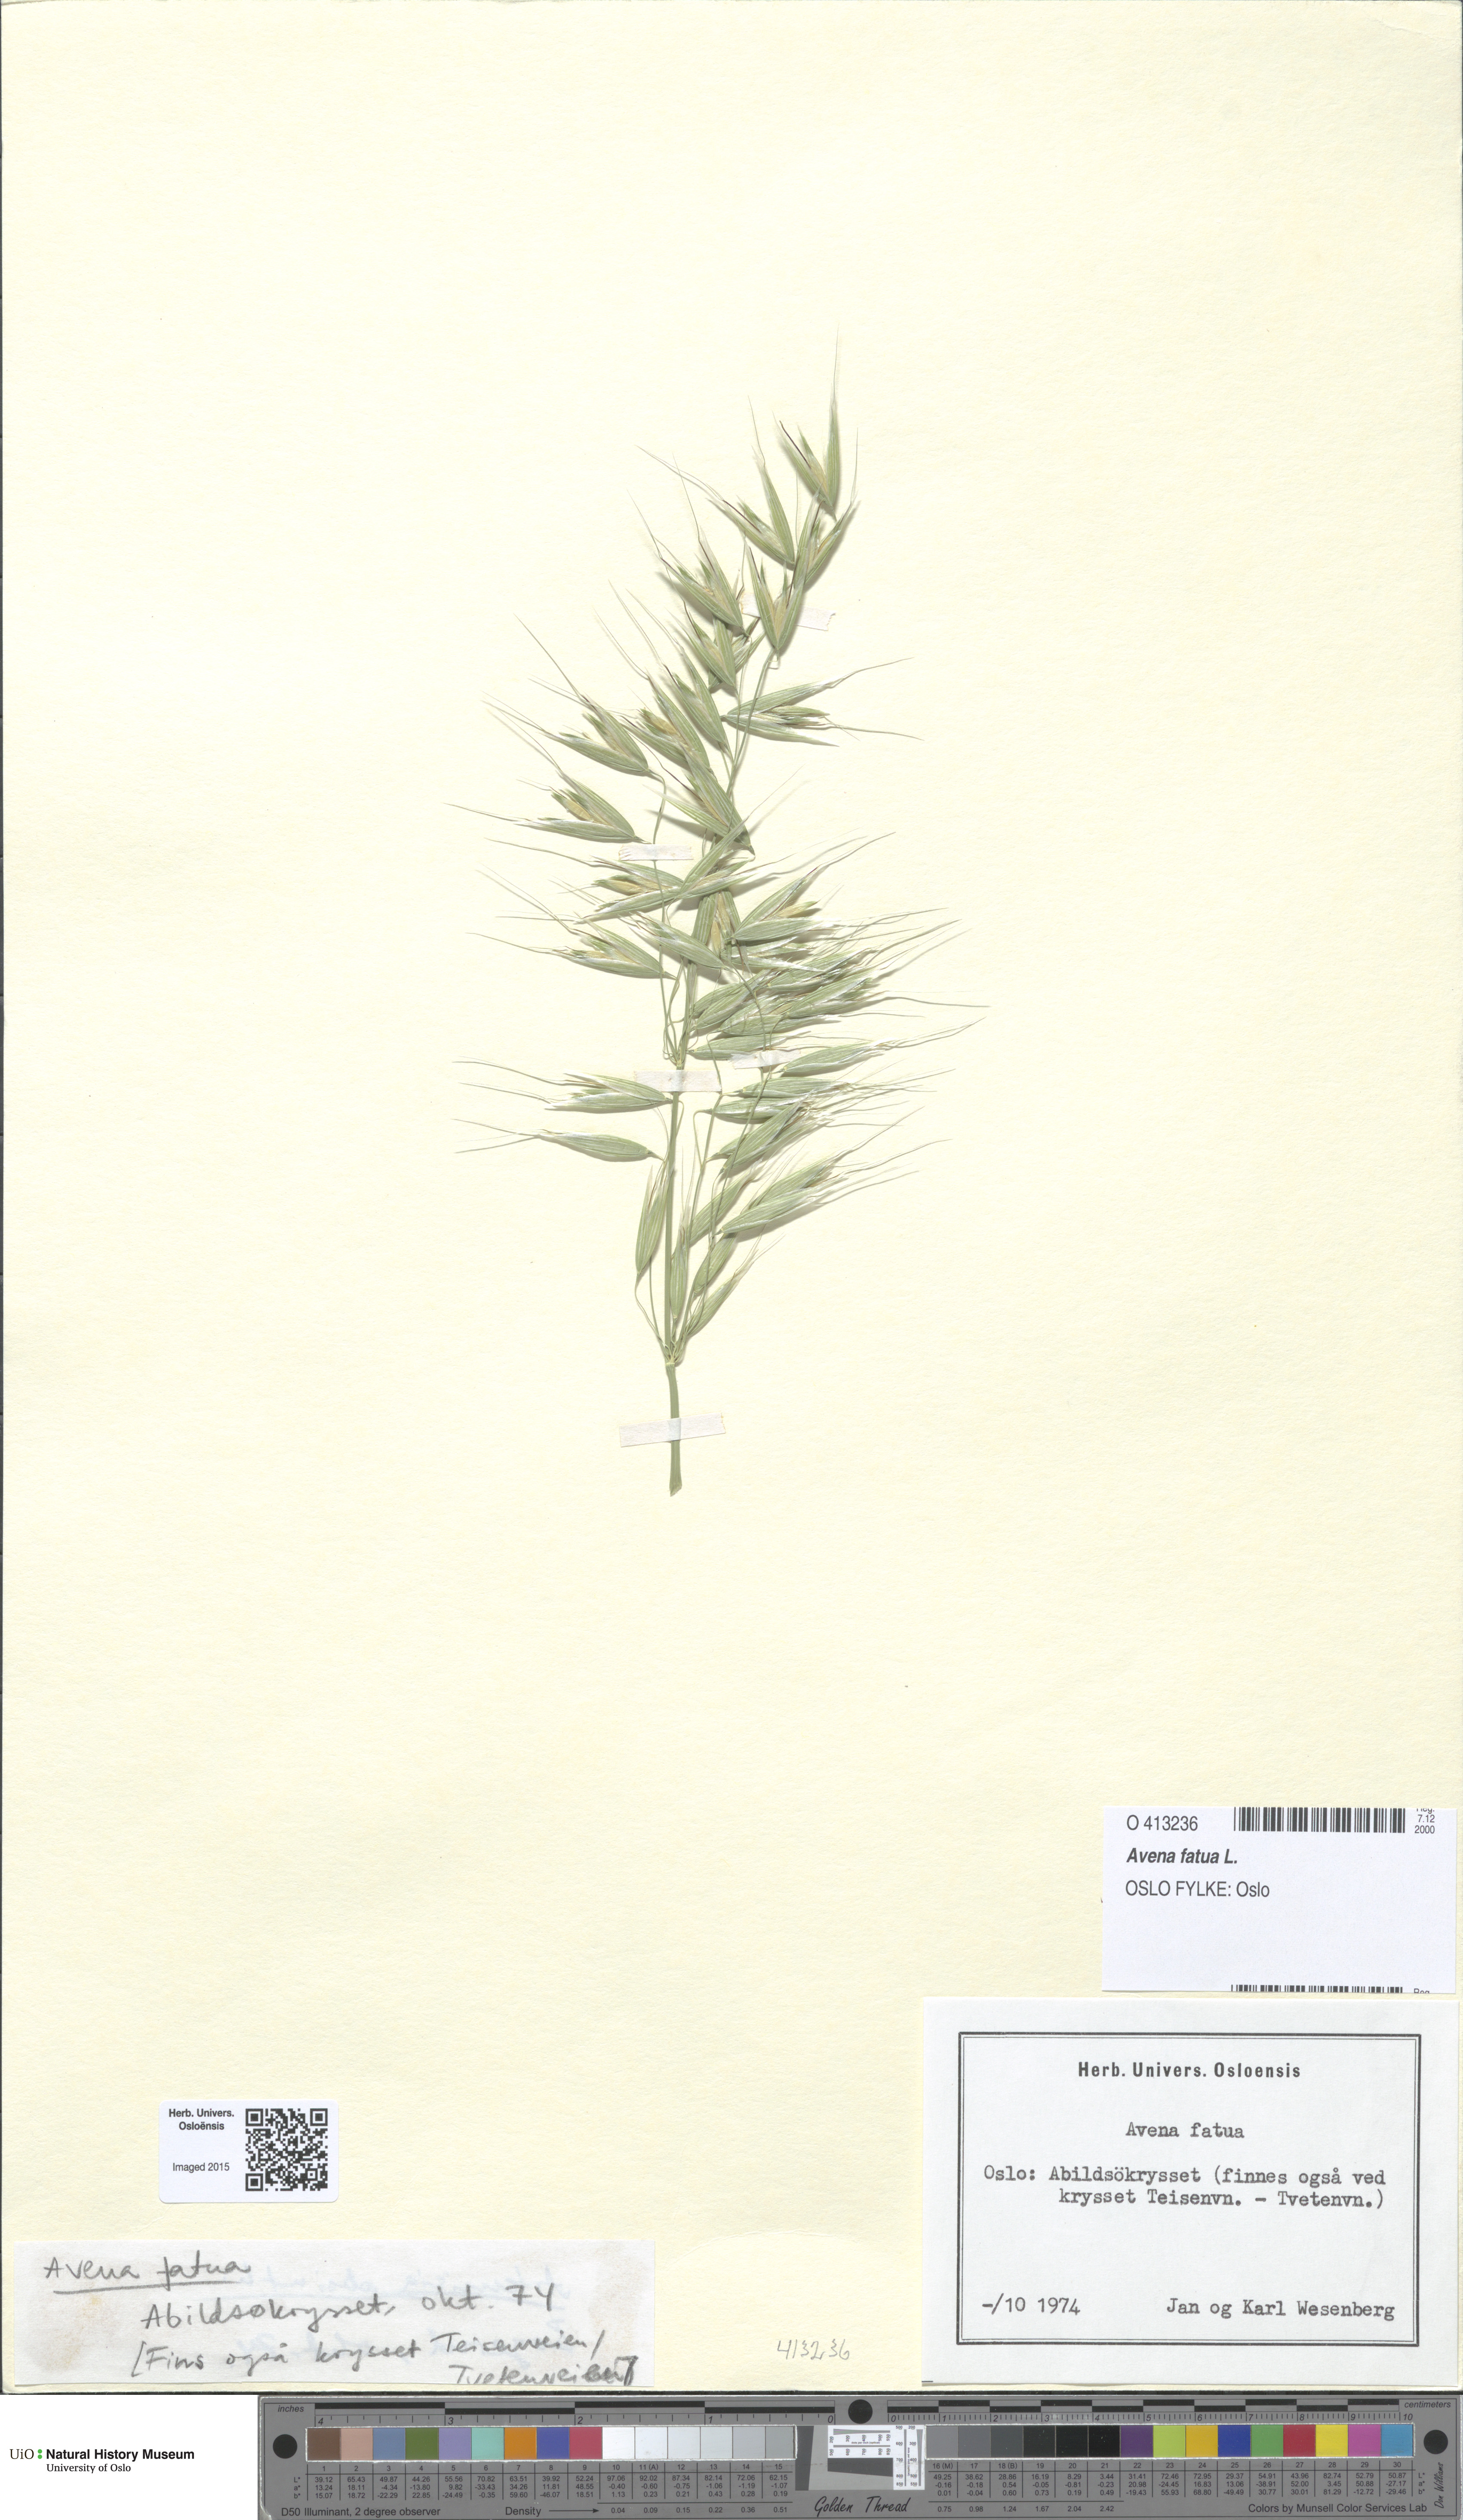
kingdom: Plantae
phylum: Tracheophyta
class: Liliopsida
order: Poales
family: Poaceae
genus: Avena
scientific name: Avena fatua
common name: Wild oat
